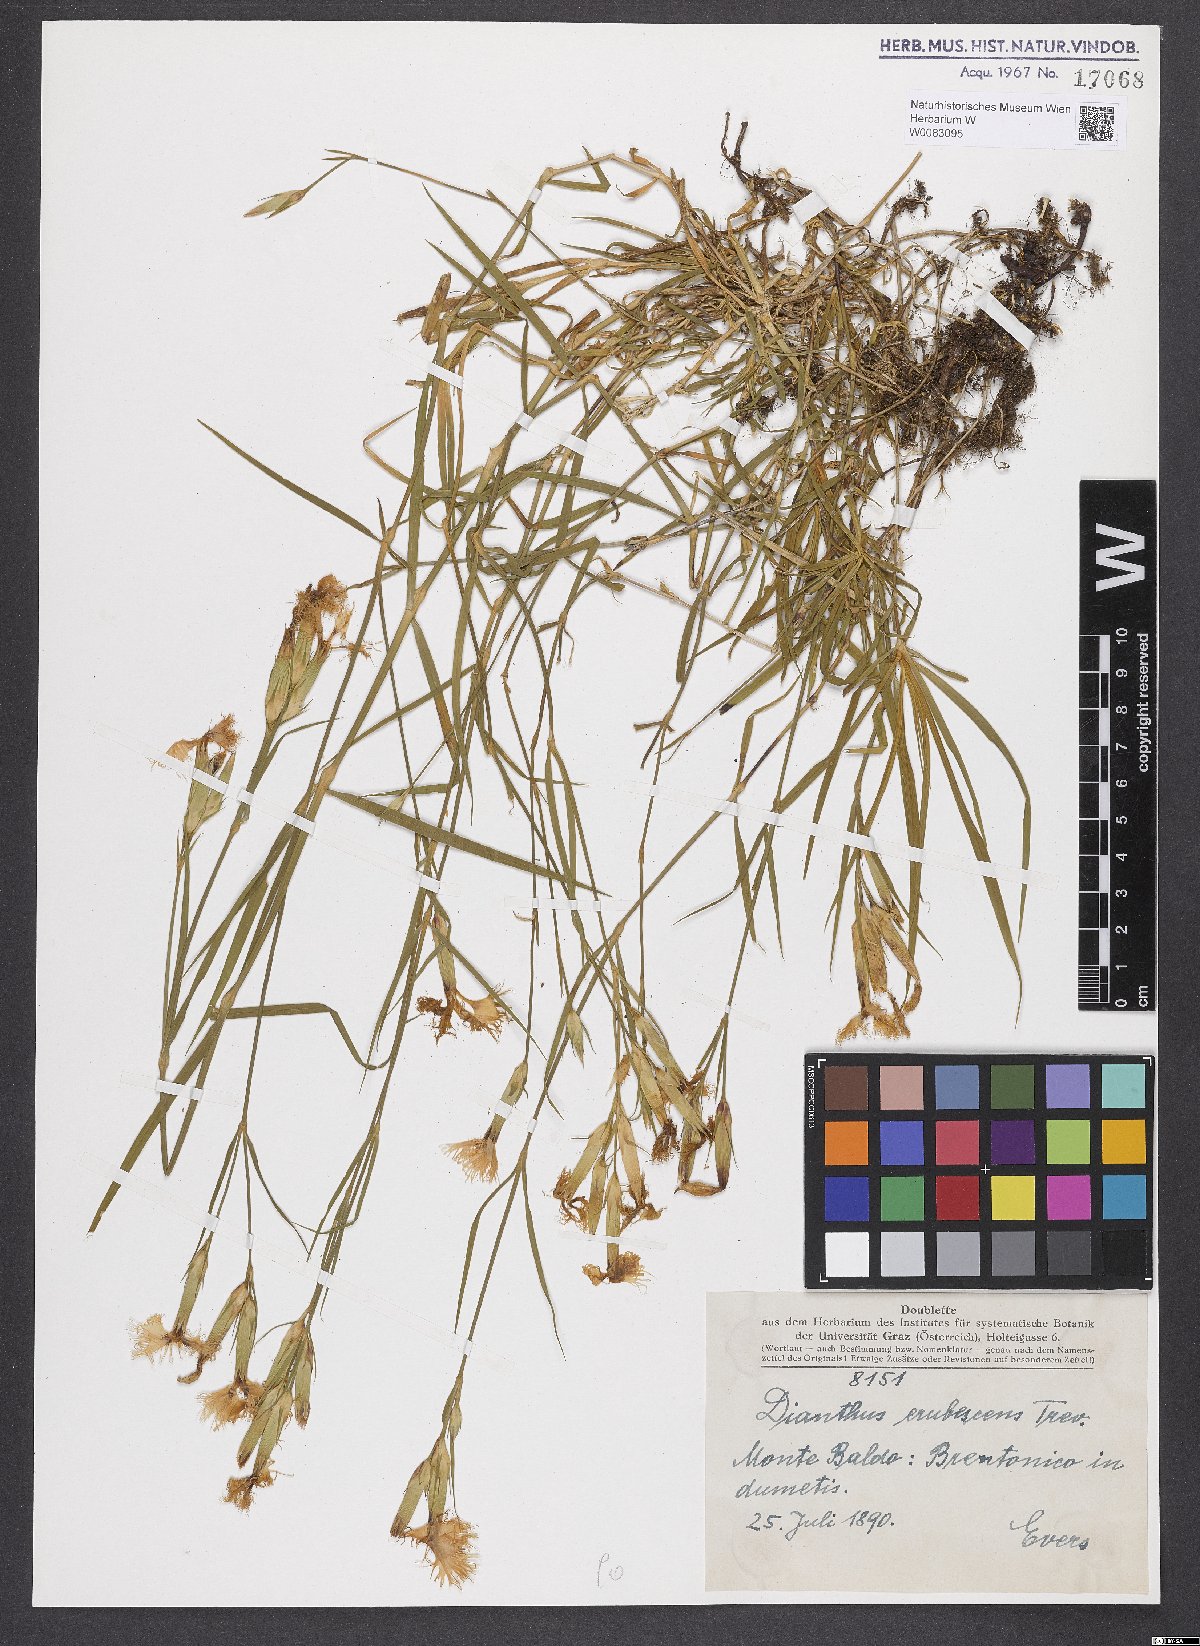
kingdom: Plantae
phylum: Tracheophyta
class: Magnoliopsida
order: Caryophyllales
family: Caryophyllaceae
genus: Dianthus
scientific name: Dianthus erubescens
